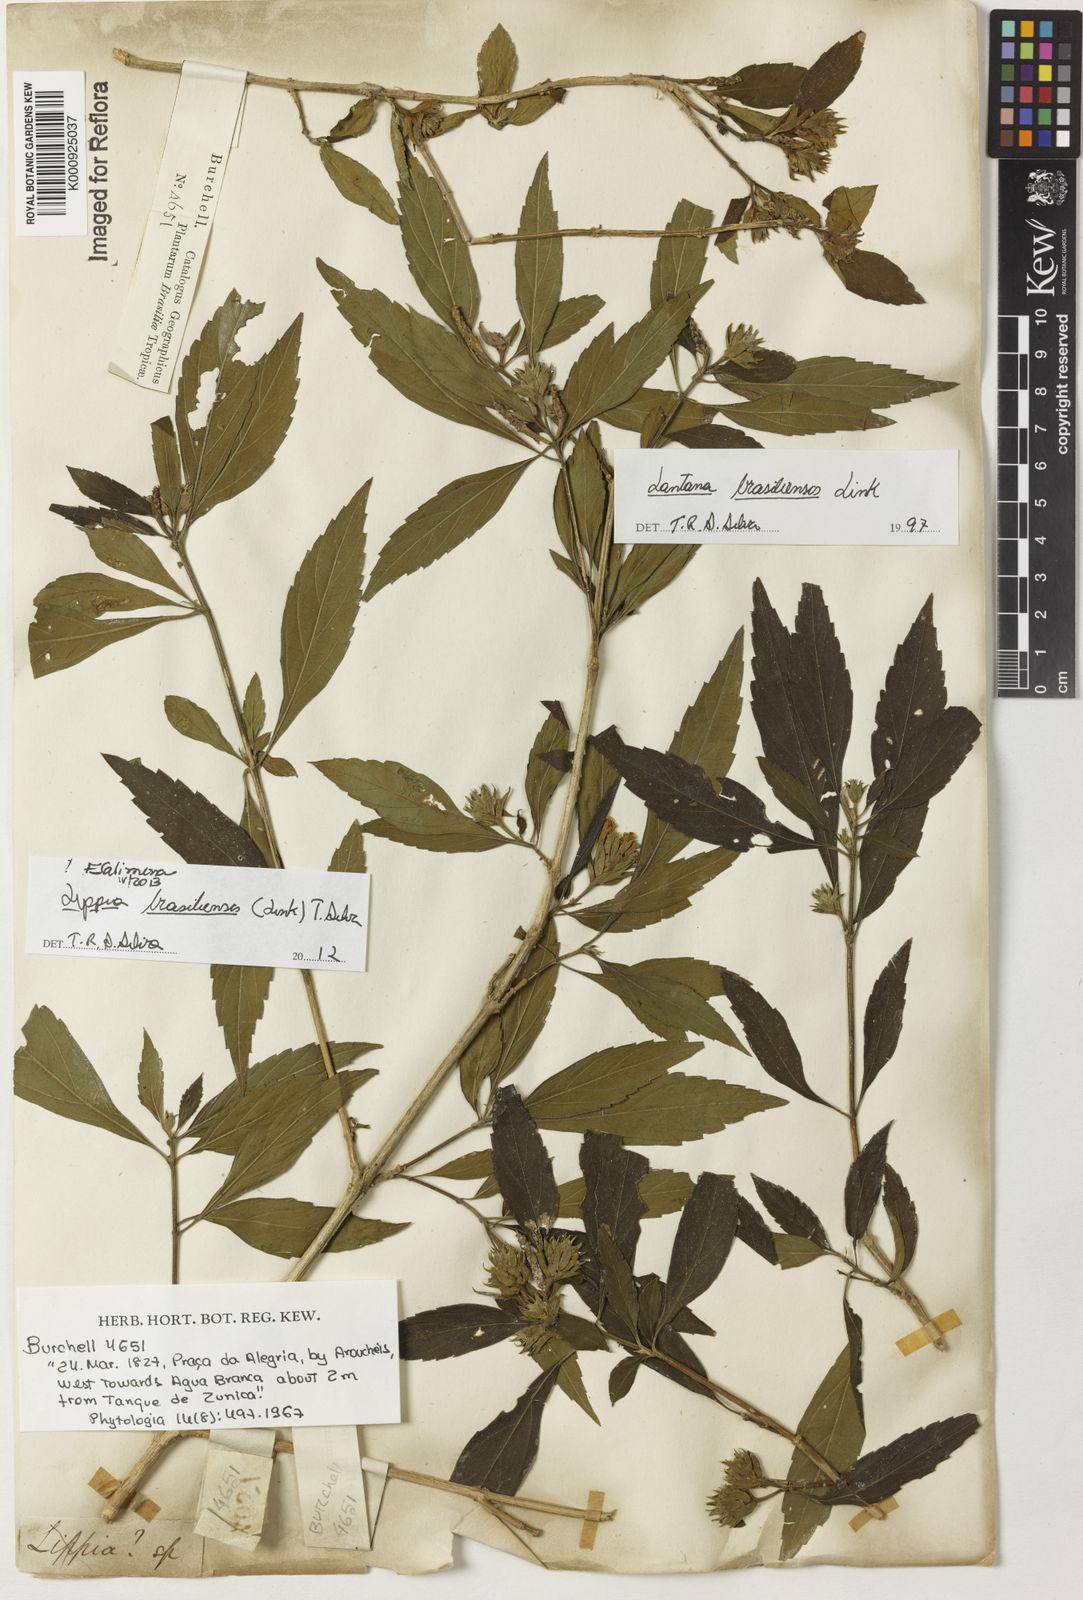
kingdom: Plantae
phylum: Tracheophyta
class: Magnoliopsida
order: Lamiales
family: Verbenaceae
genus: Lippia
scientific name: Lippia brasiliensis
